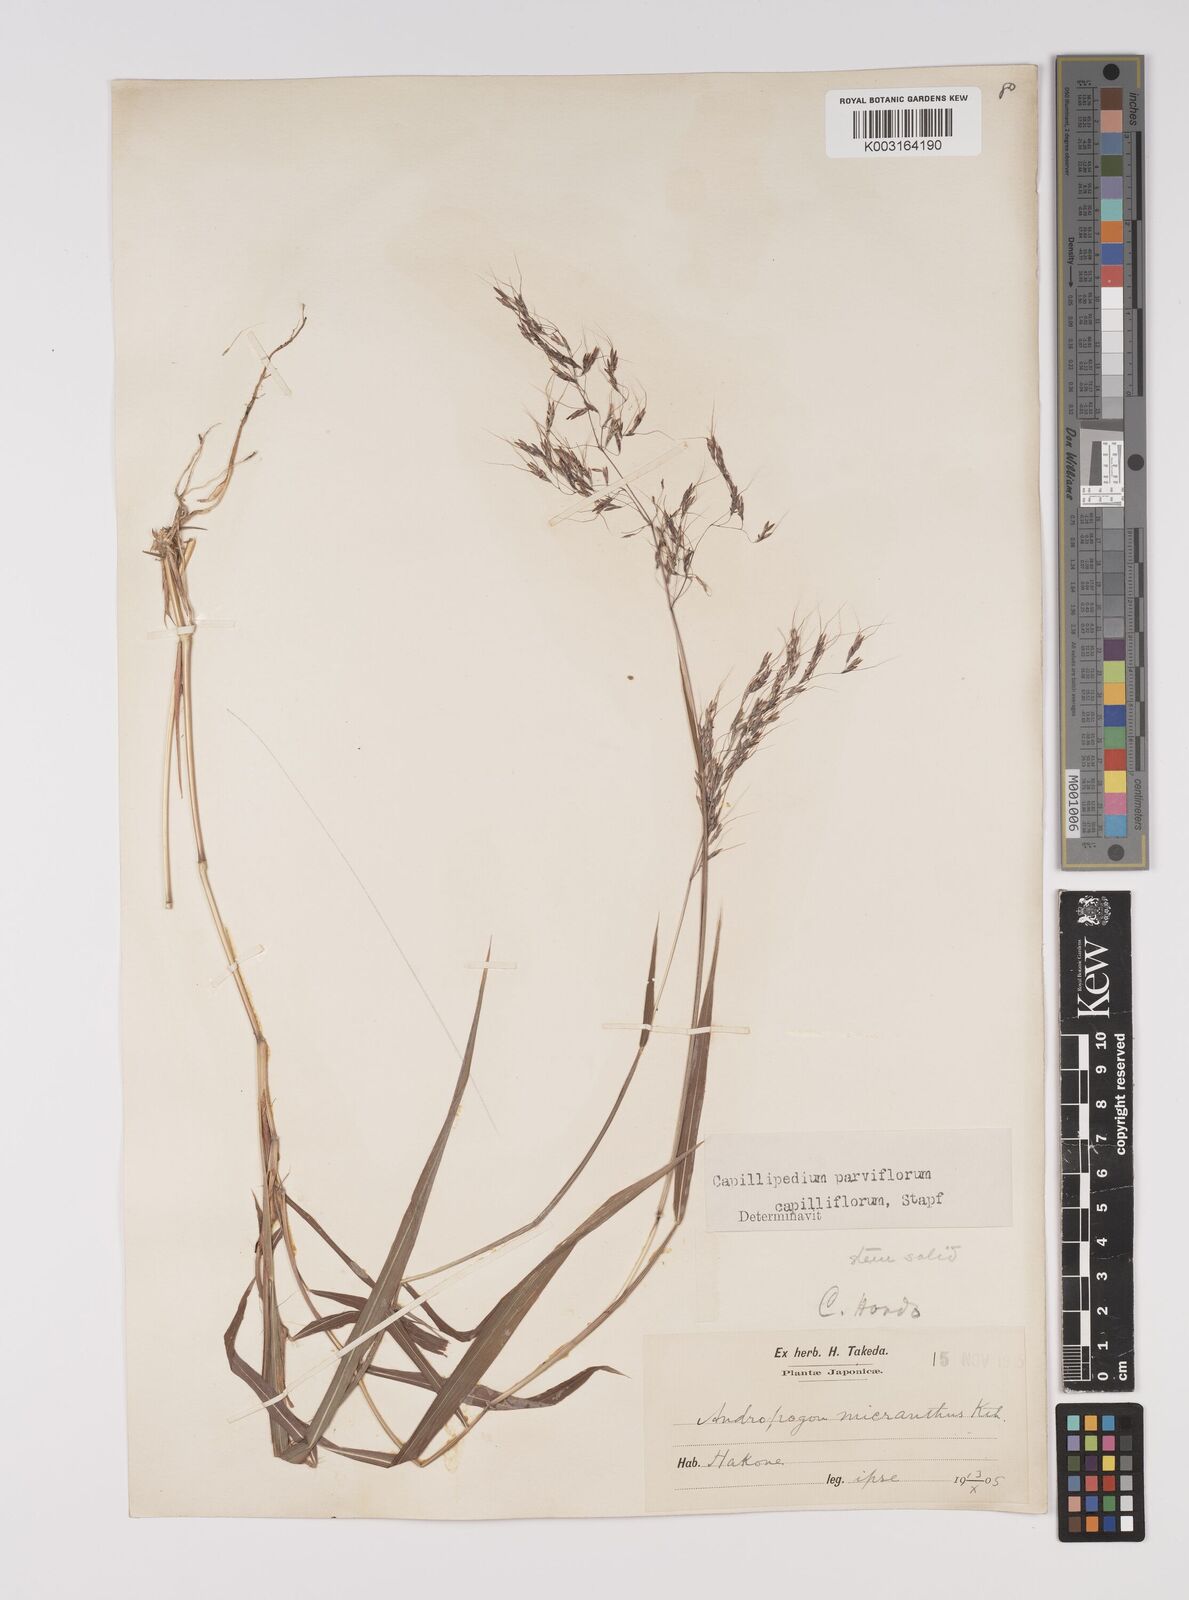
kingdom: Plantae
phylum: Tracheophyta
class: Liliopsida
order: Poales
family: Poaceae
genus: Capillipedium
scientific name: Capillipedium parviflorum
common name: Golden-beard
